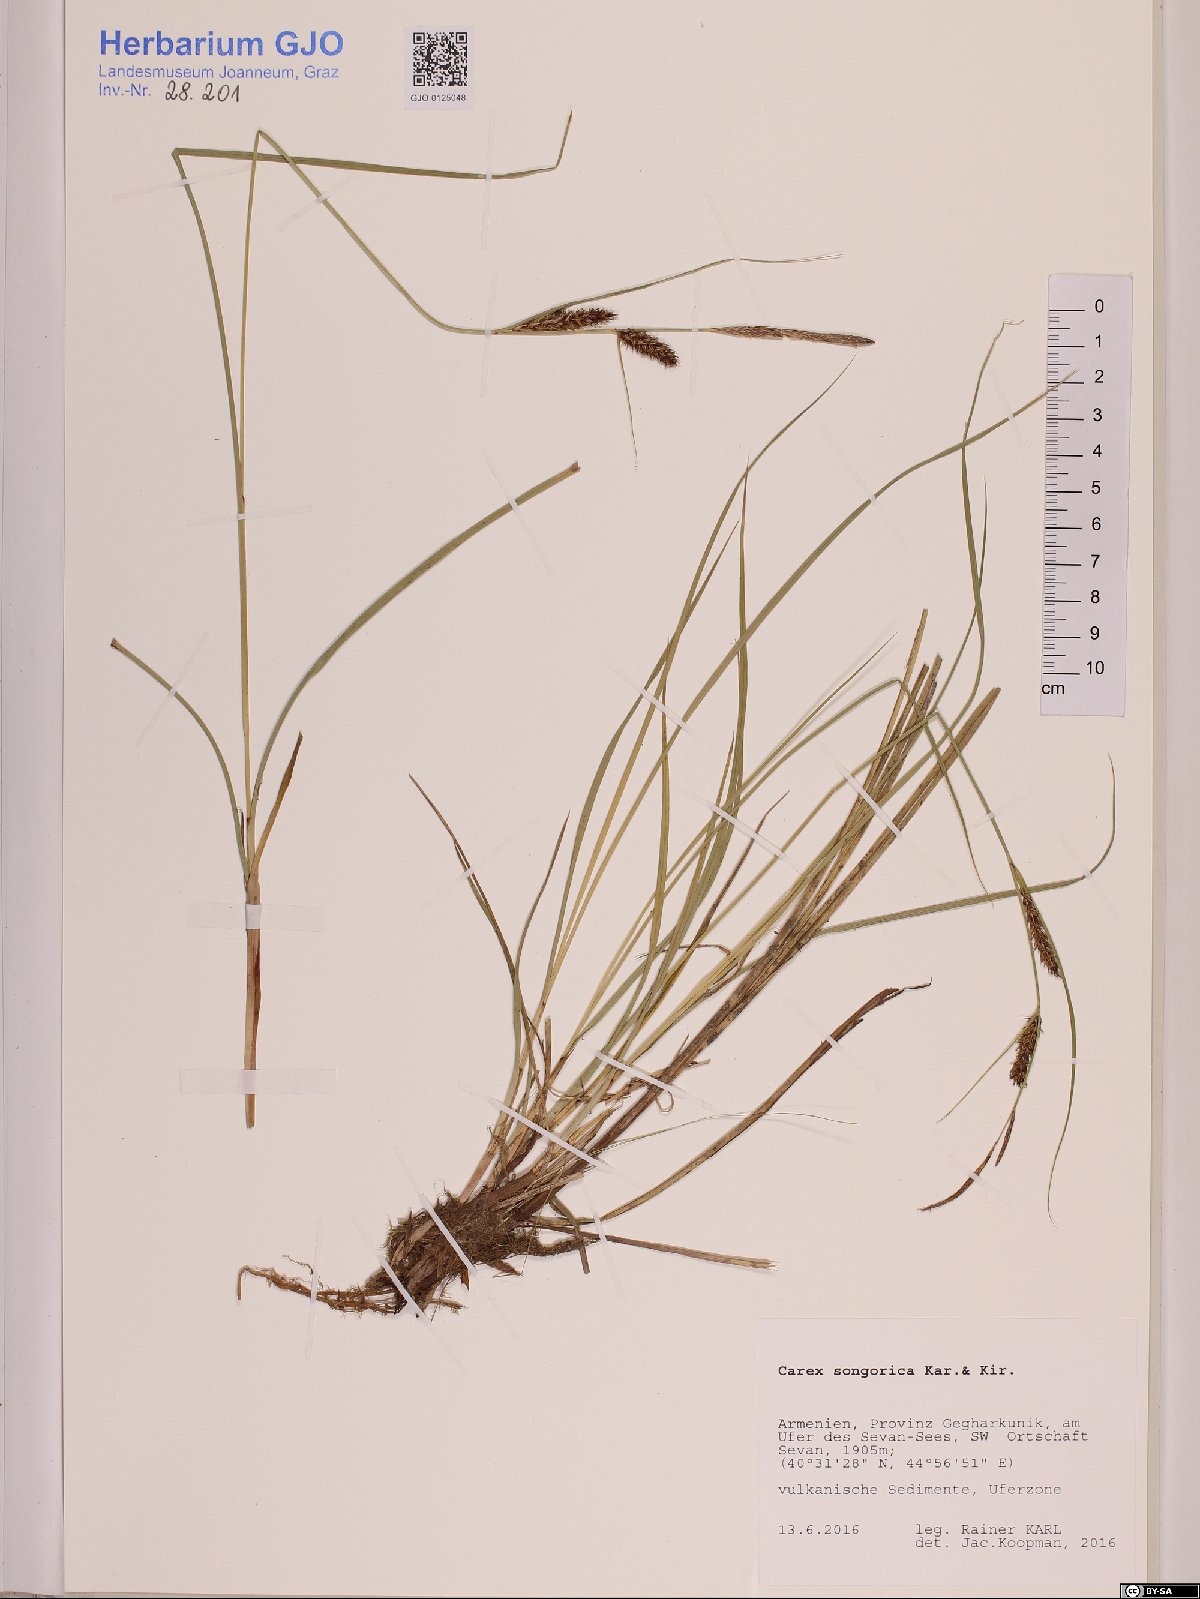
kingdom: Plantae
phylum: Tracheophyta
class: Liliopsida
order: Poales
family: Cyperaceae
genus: Carex
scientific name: Carex songorica
